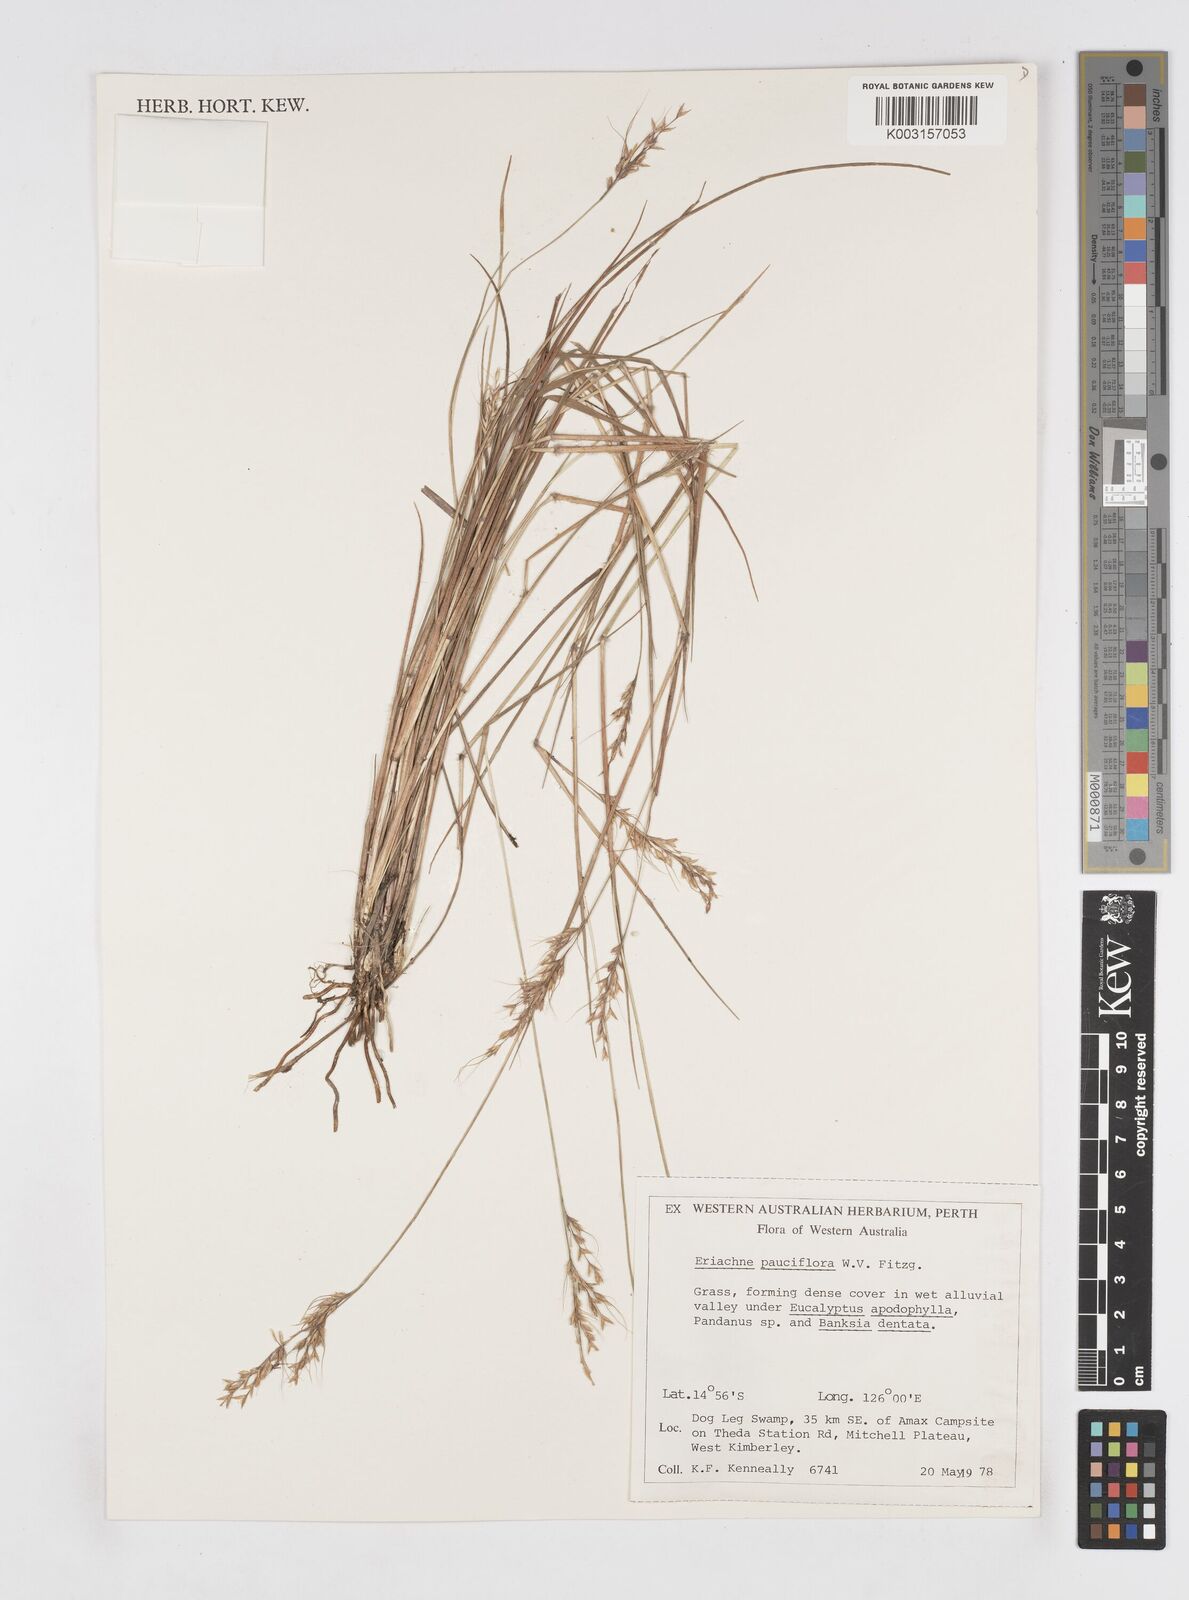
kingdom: Plantae
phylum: Tracheophyta
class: Liliopsida
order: Poales
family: Poaceae
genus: Eriachne
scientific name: Eriachne pauciflora
